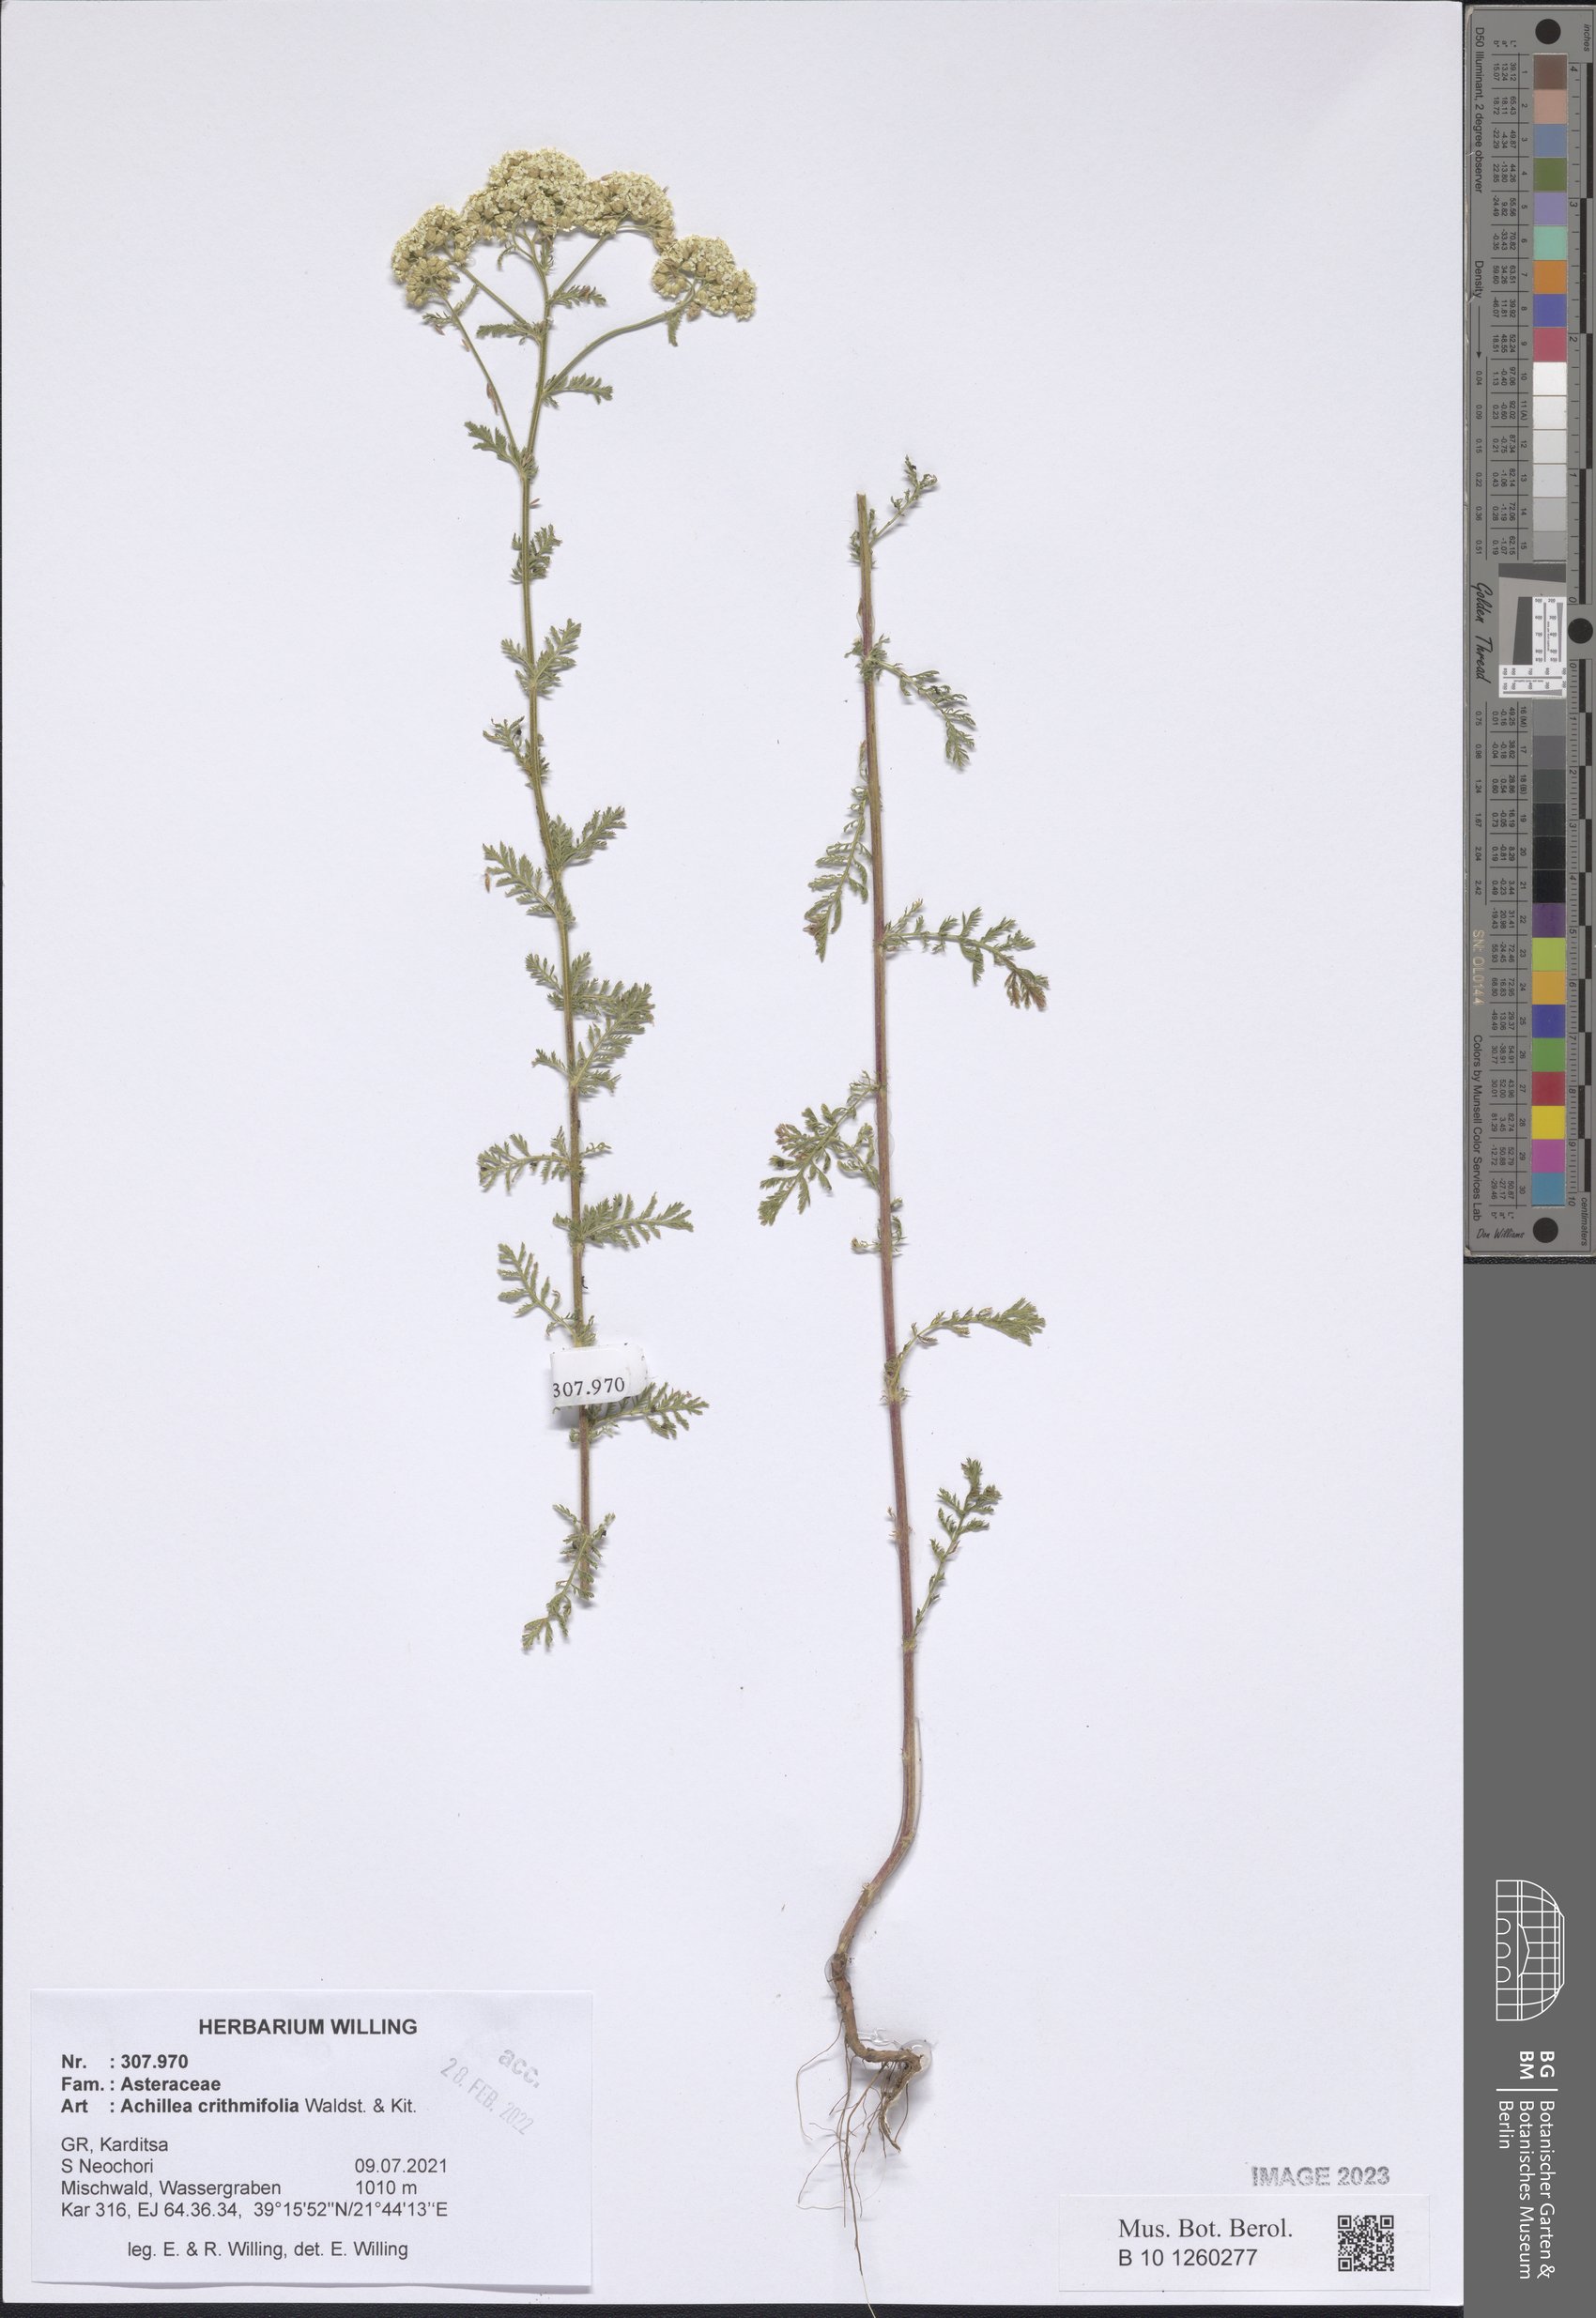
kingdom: Plantae
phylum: Tracheophyta
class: Magnoliopsida
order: Asterales
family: Asteraceae
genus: Achillea
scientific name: Achillea crithmifolia
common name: Yarrow
